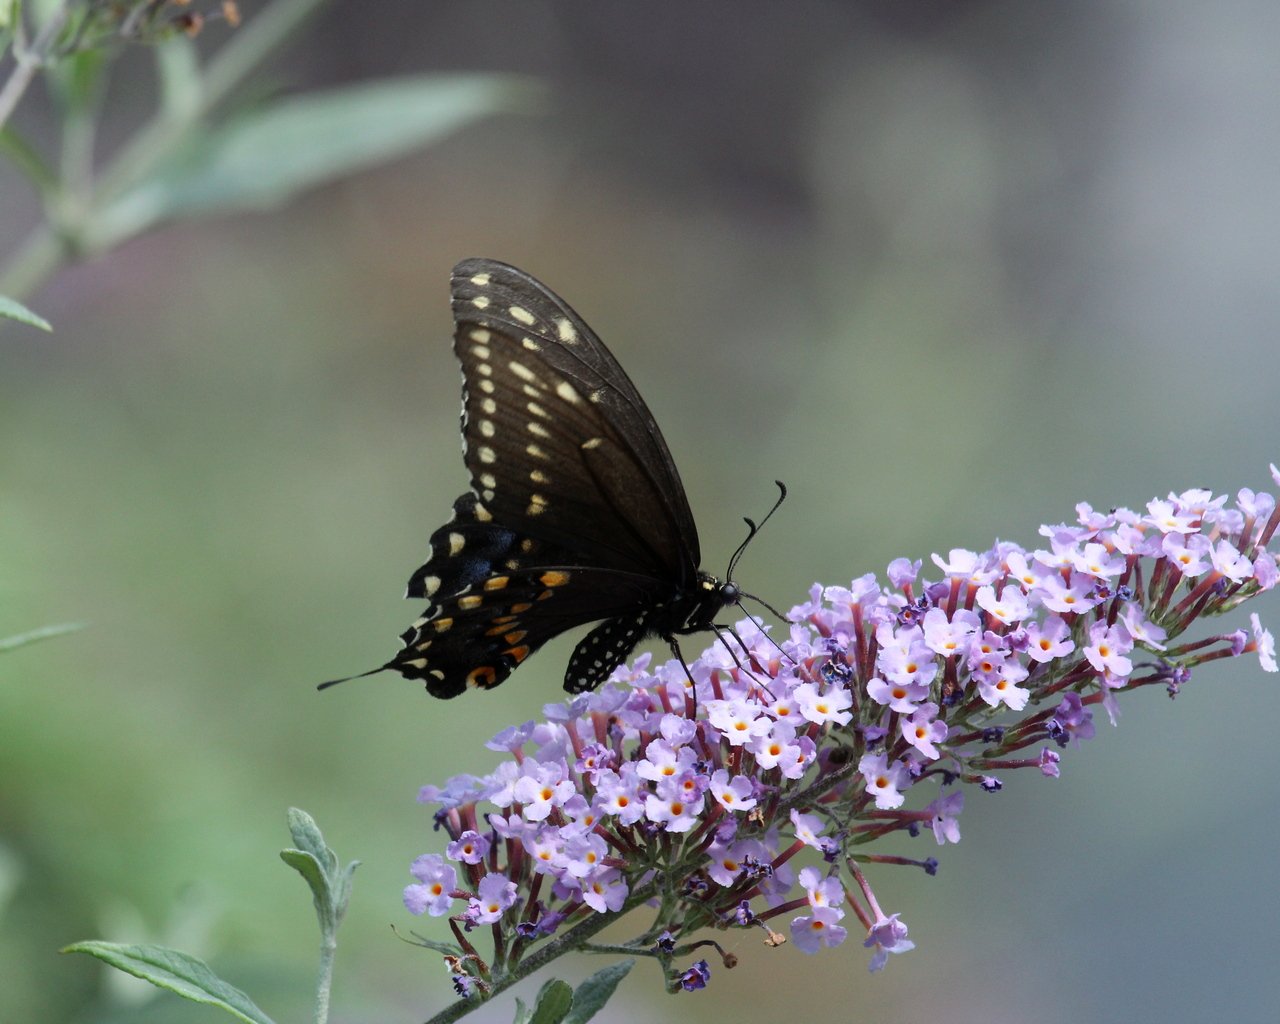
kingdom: Animalia
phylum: Arthropoda
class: Insecta
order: Lepidoptera
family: Papilionidae
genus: Papilio
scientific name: Papilio polyxenes
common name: Black Swallowtail
